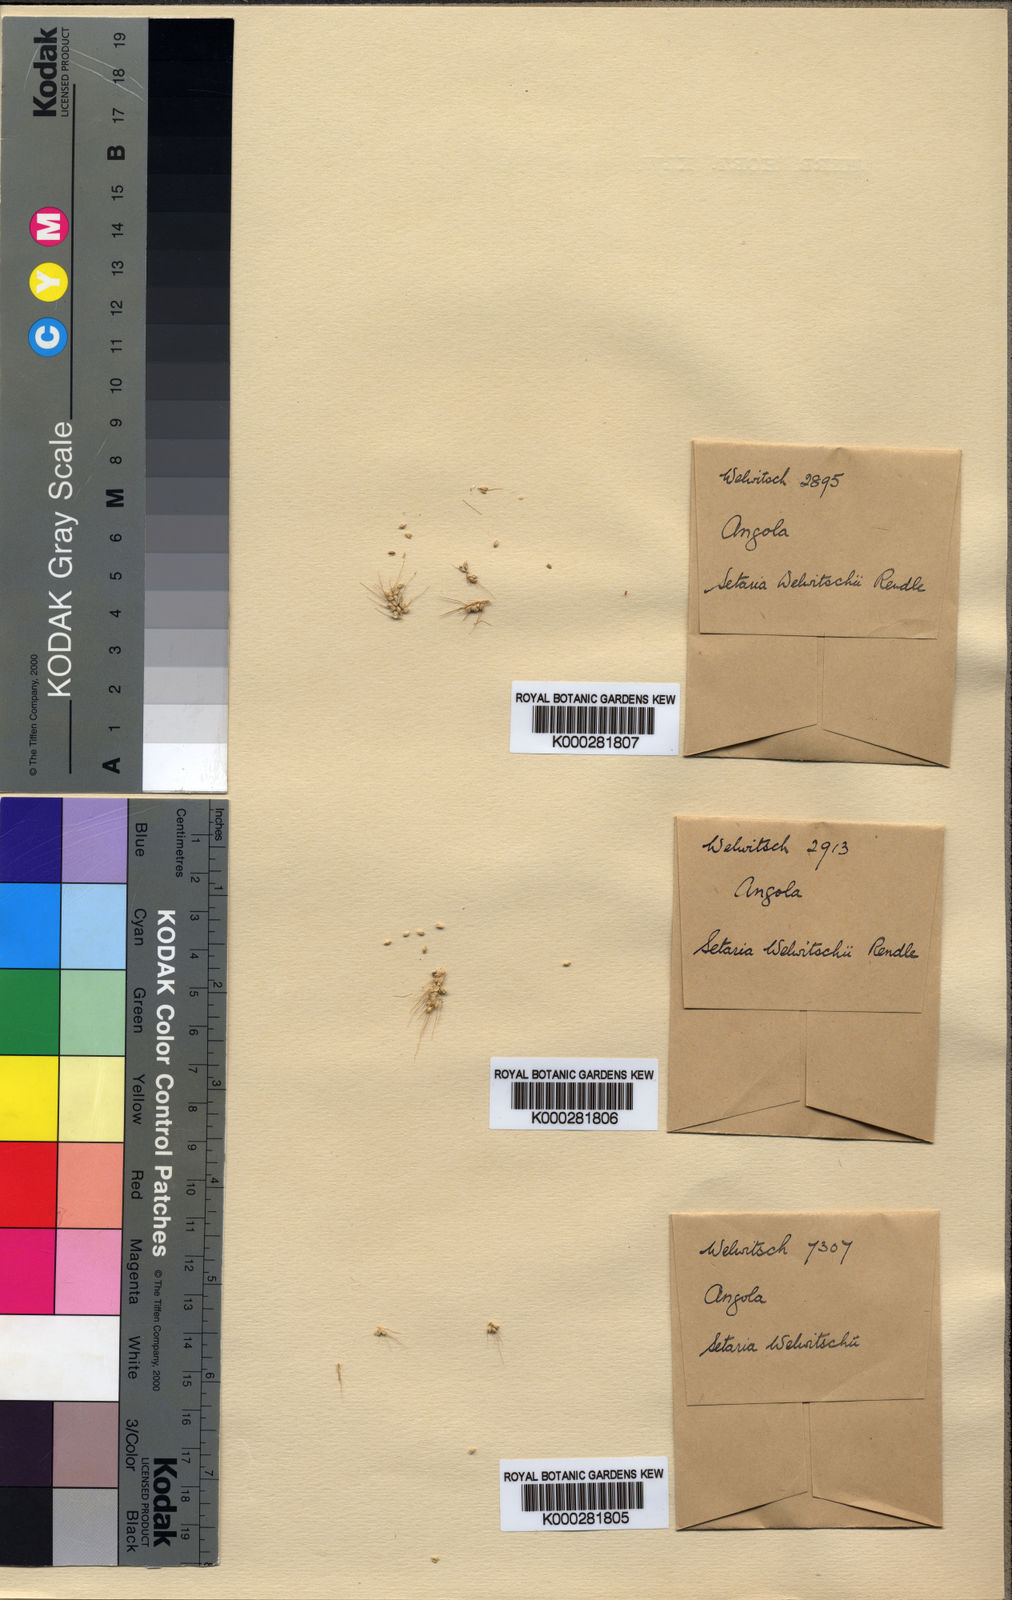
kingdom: Plantae
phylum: Tracheophyta
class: Liliopsida
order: Poales
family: Poaceae
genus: Setaria
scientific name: Setaria welwitschii
